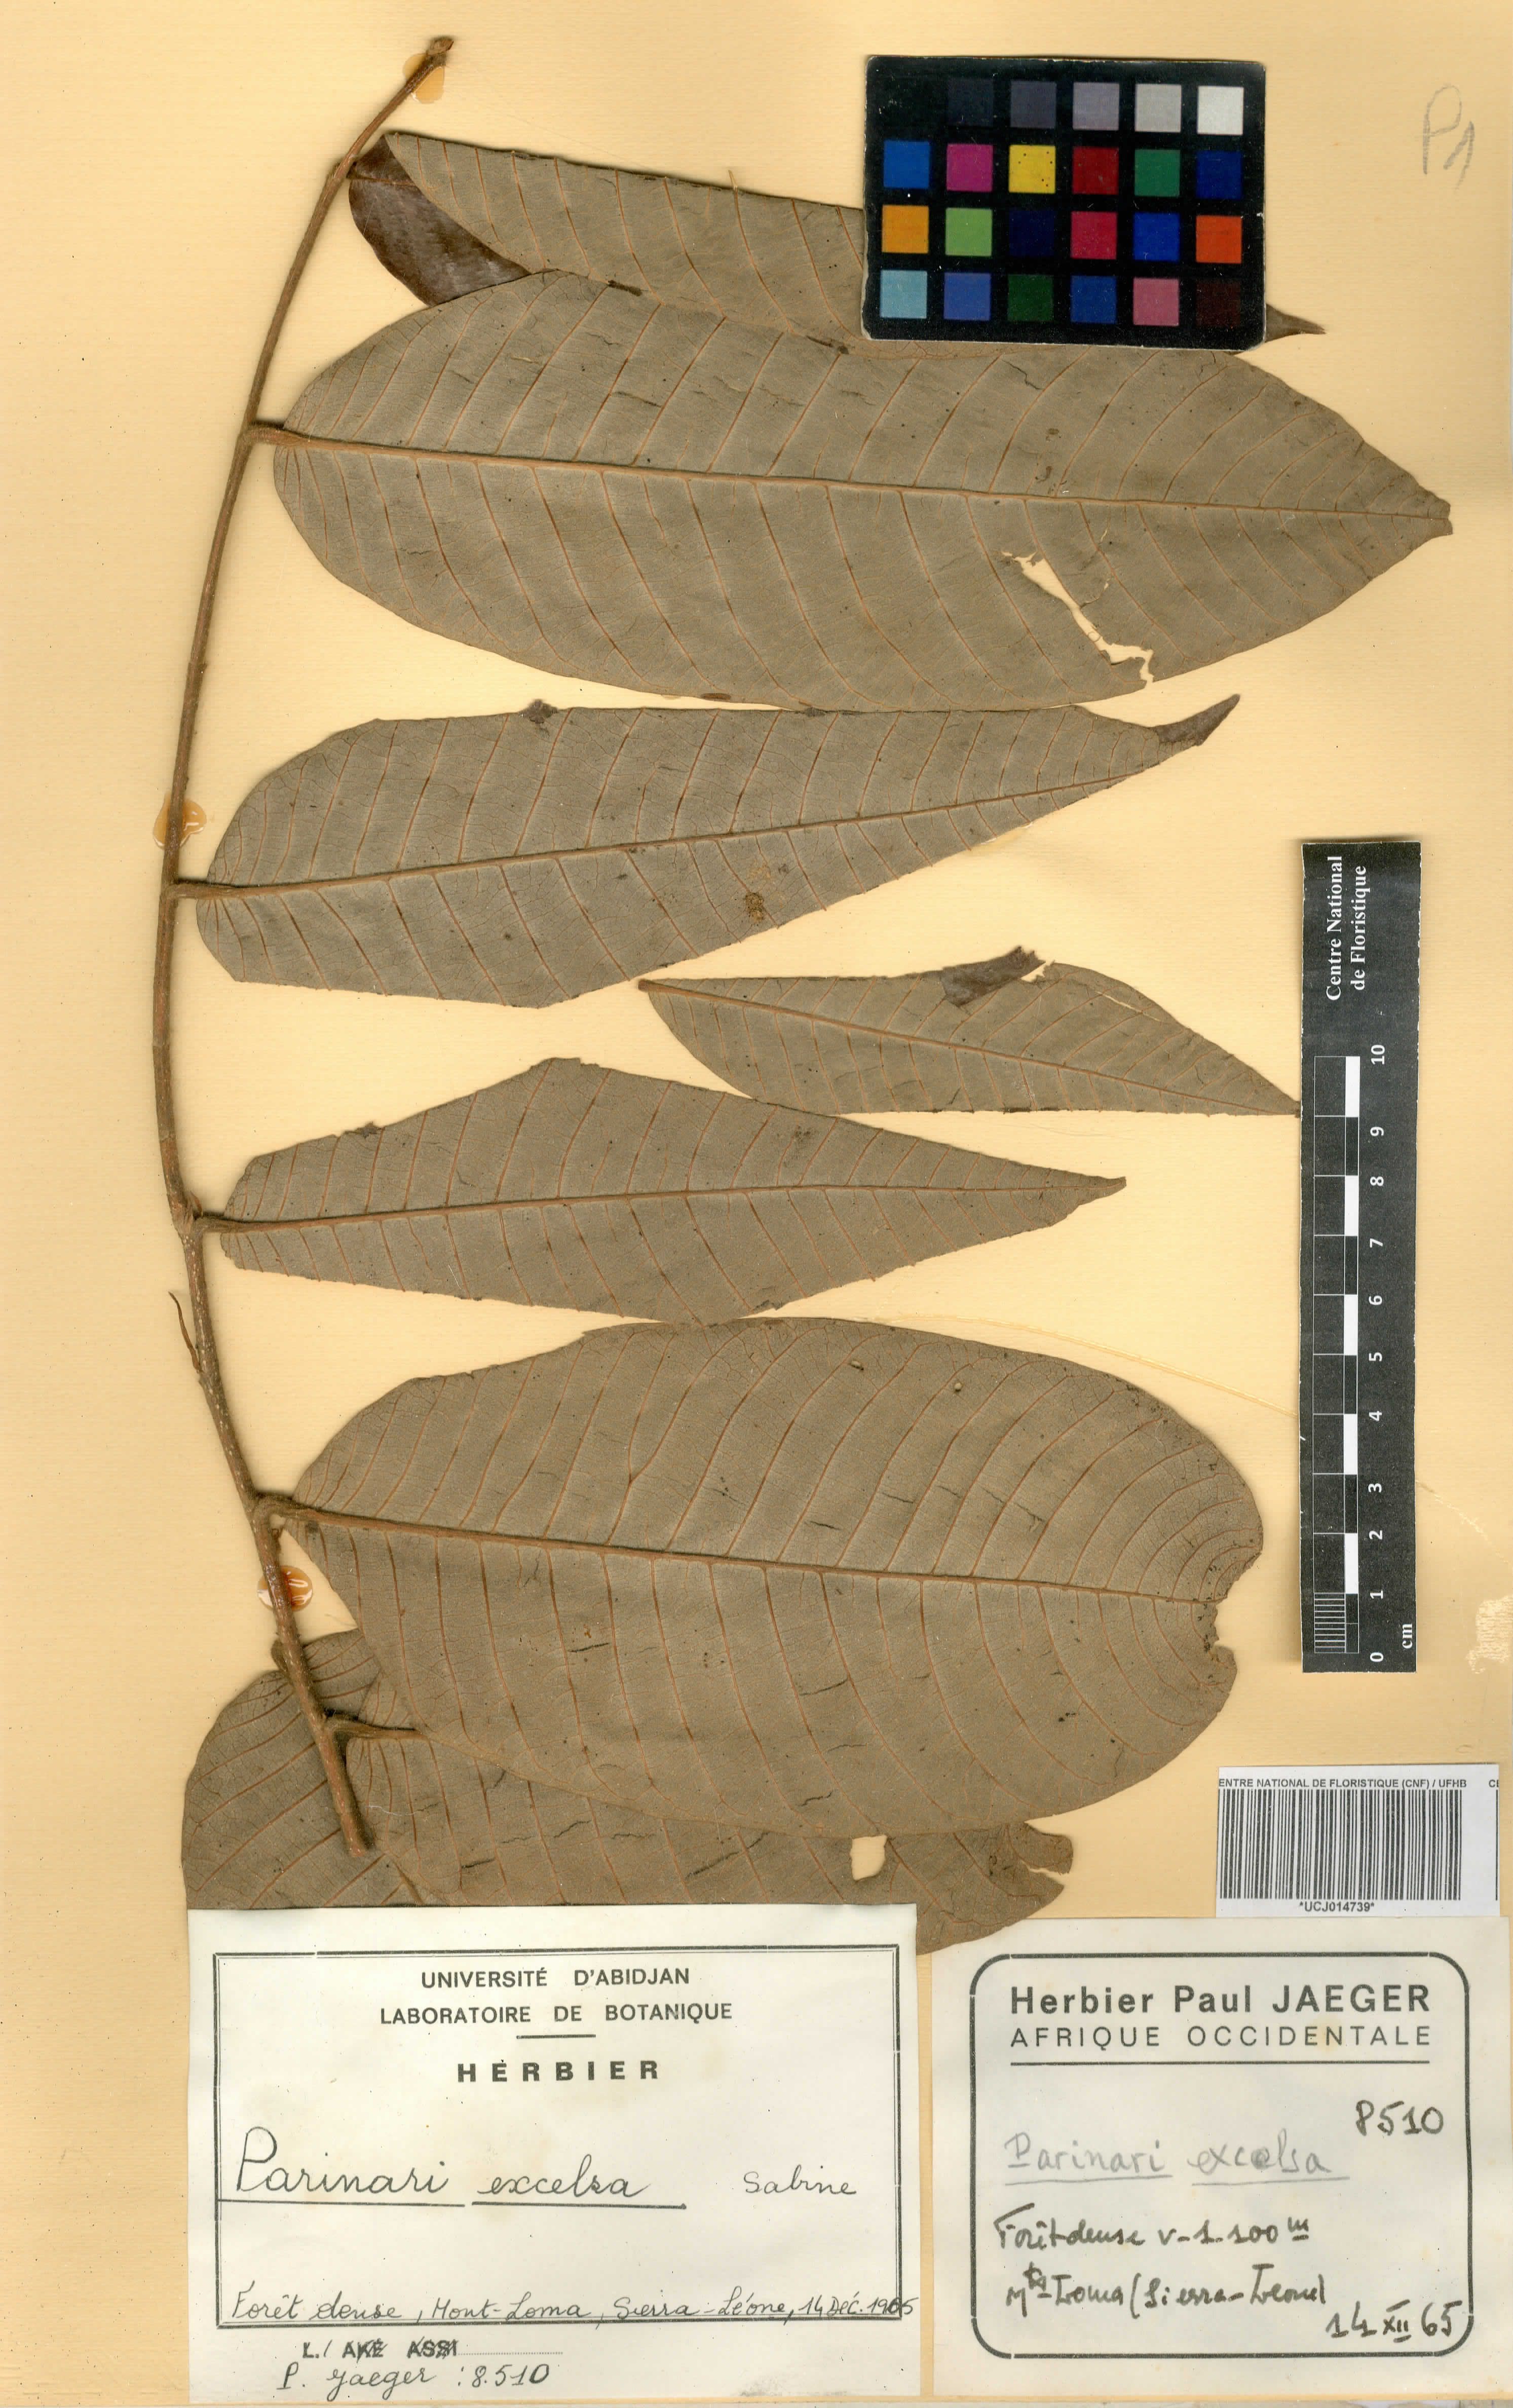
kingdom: Plantae
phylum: Tracheophyta
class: Magnoliopsida
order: Malpighiales
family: Chrysobalanaceae
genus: Parinari
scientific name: Parinari excelsa
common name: Guinea-plum
